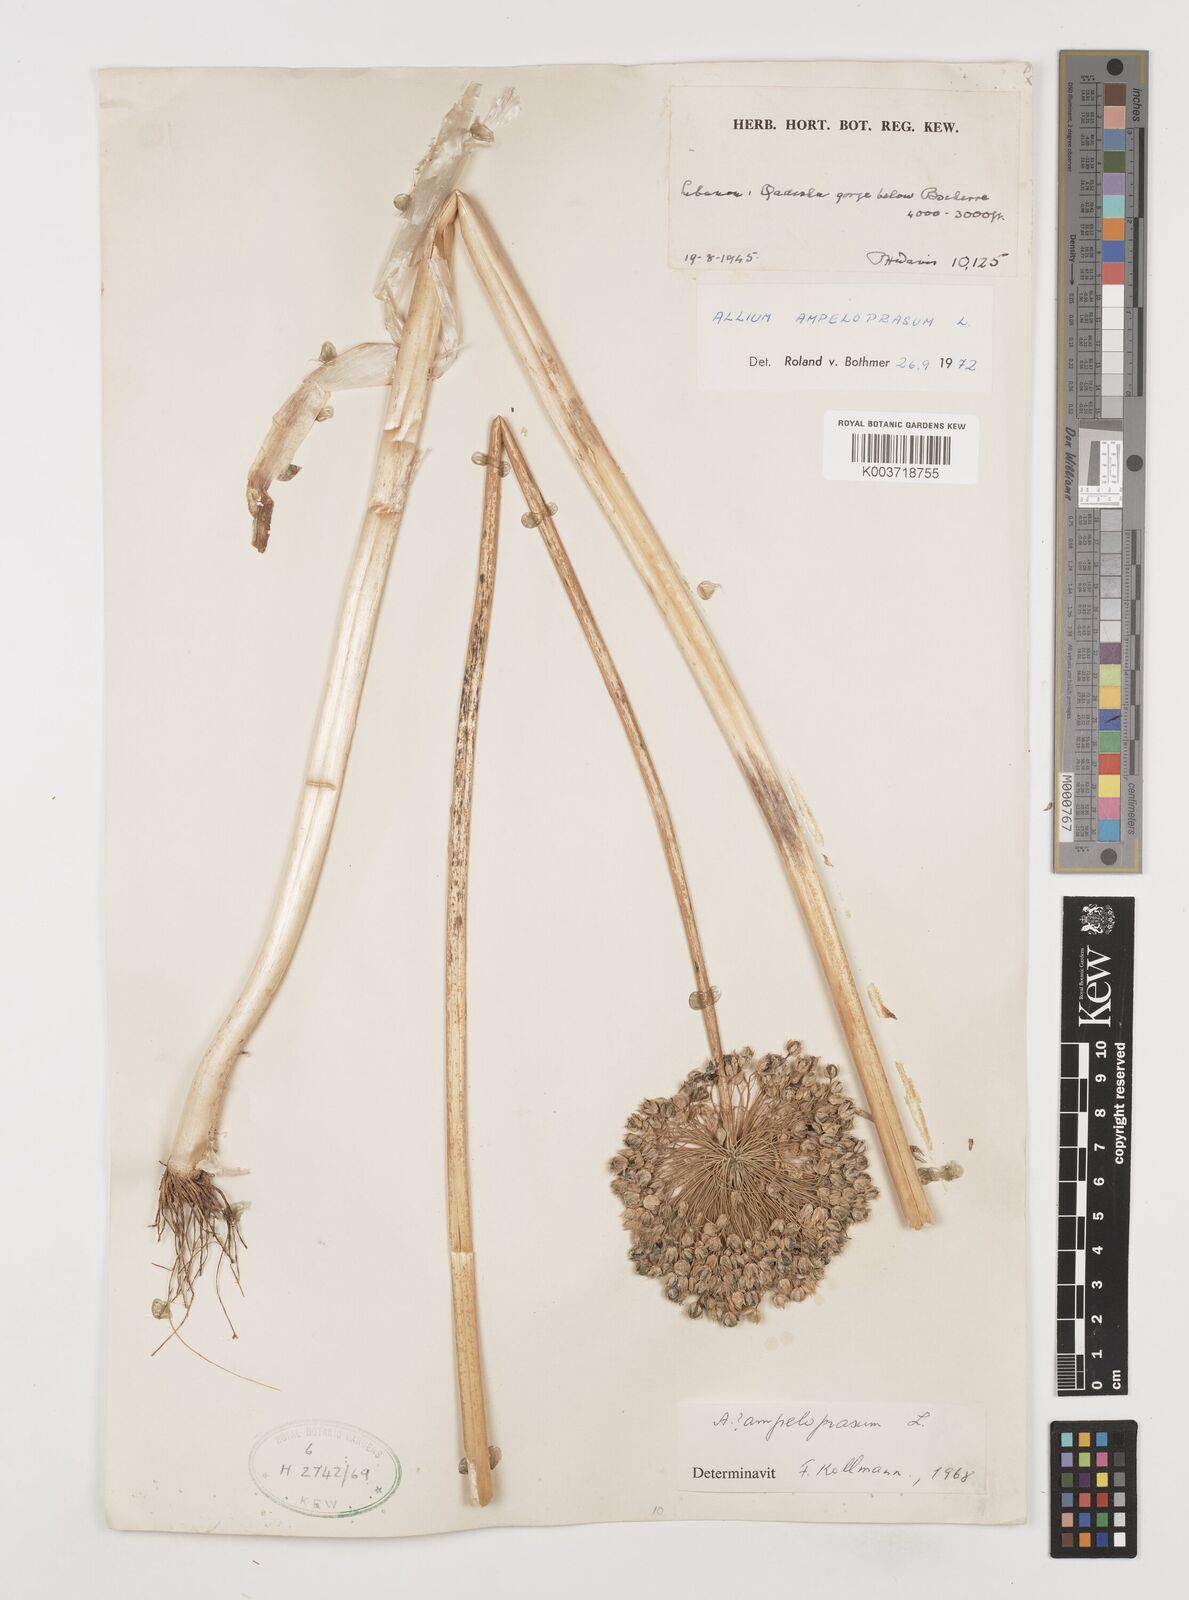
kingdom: Plantae
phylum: Tracheophyta
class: Liliopsida
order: Asparagales
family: Amaryllidaceae
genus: Allium
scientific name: Allium rotundum
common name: Sand leek
